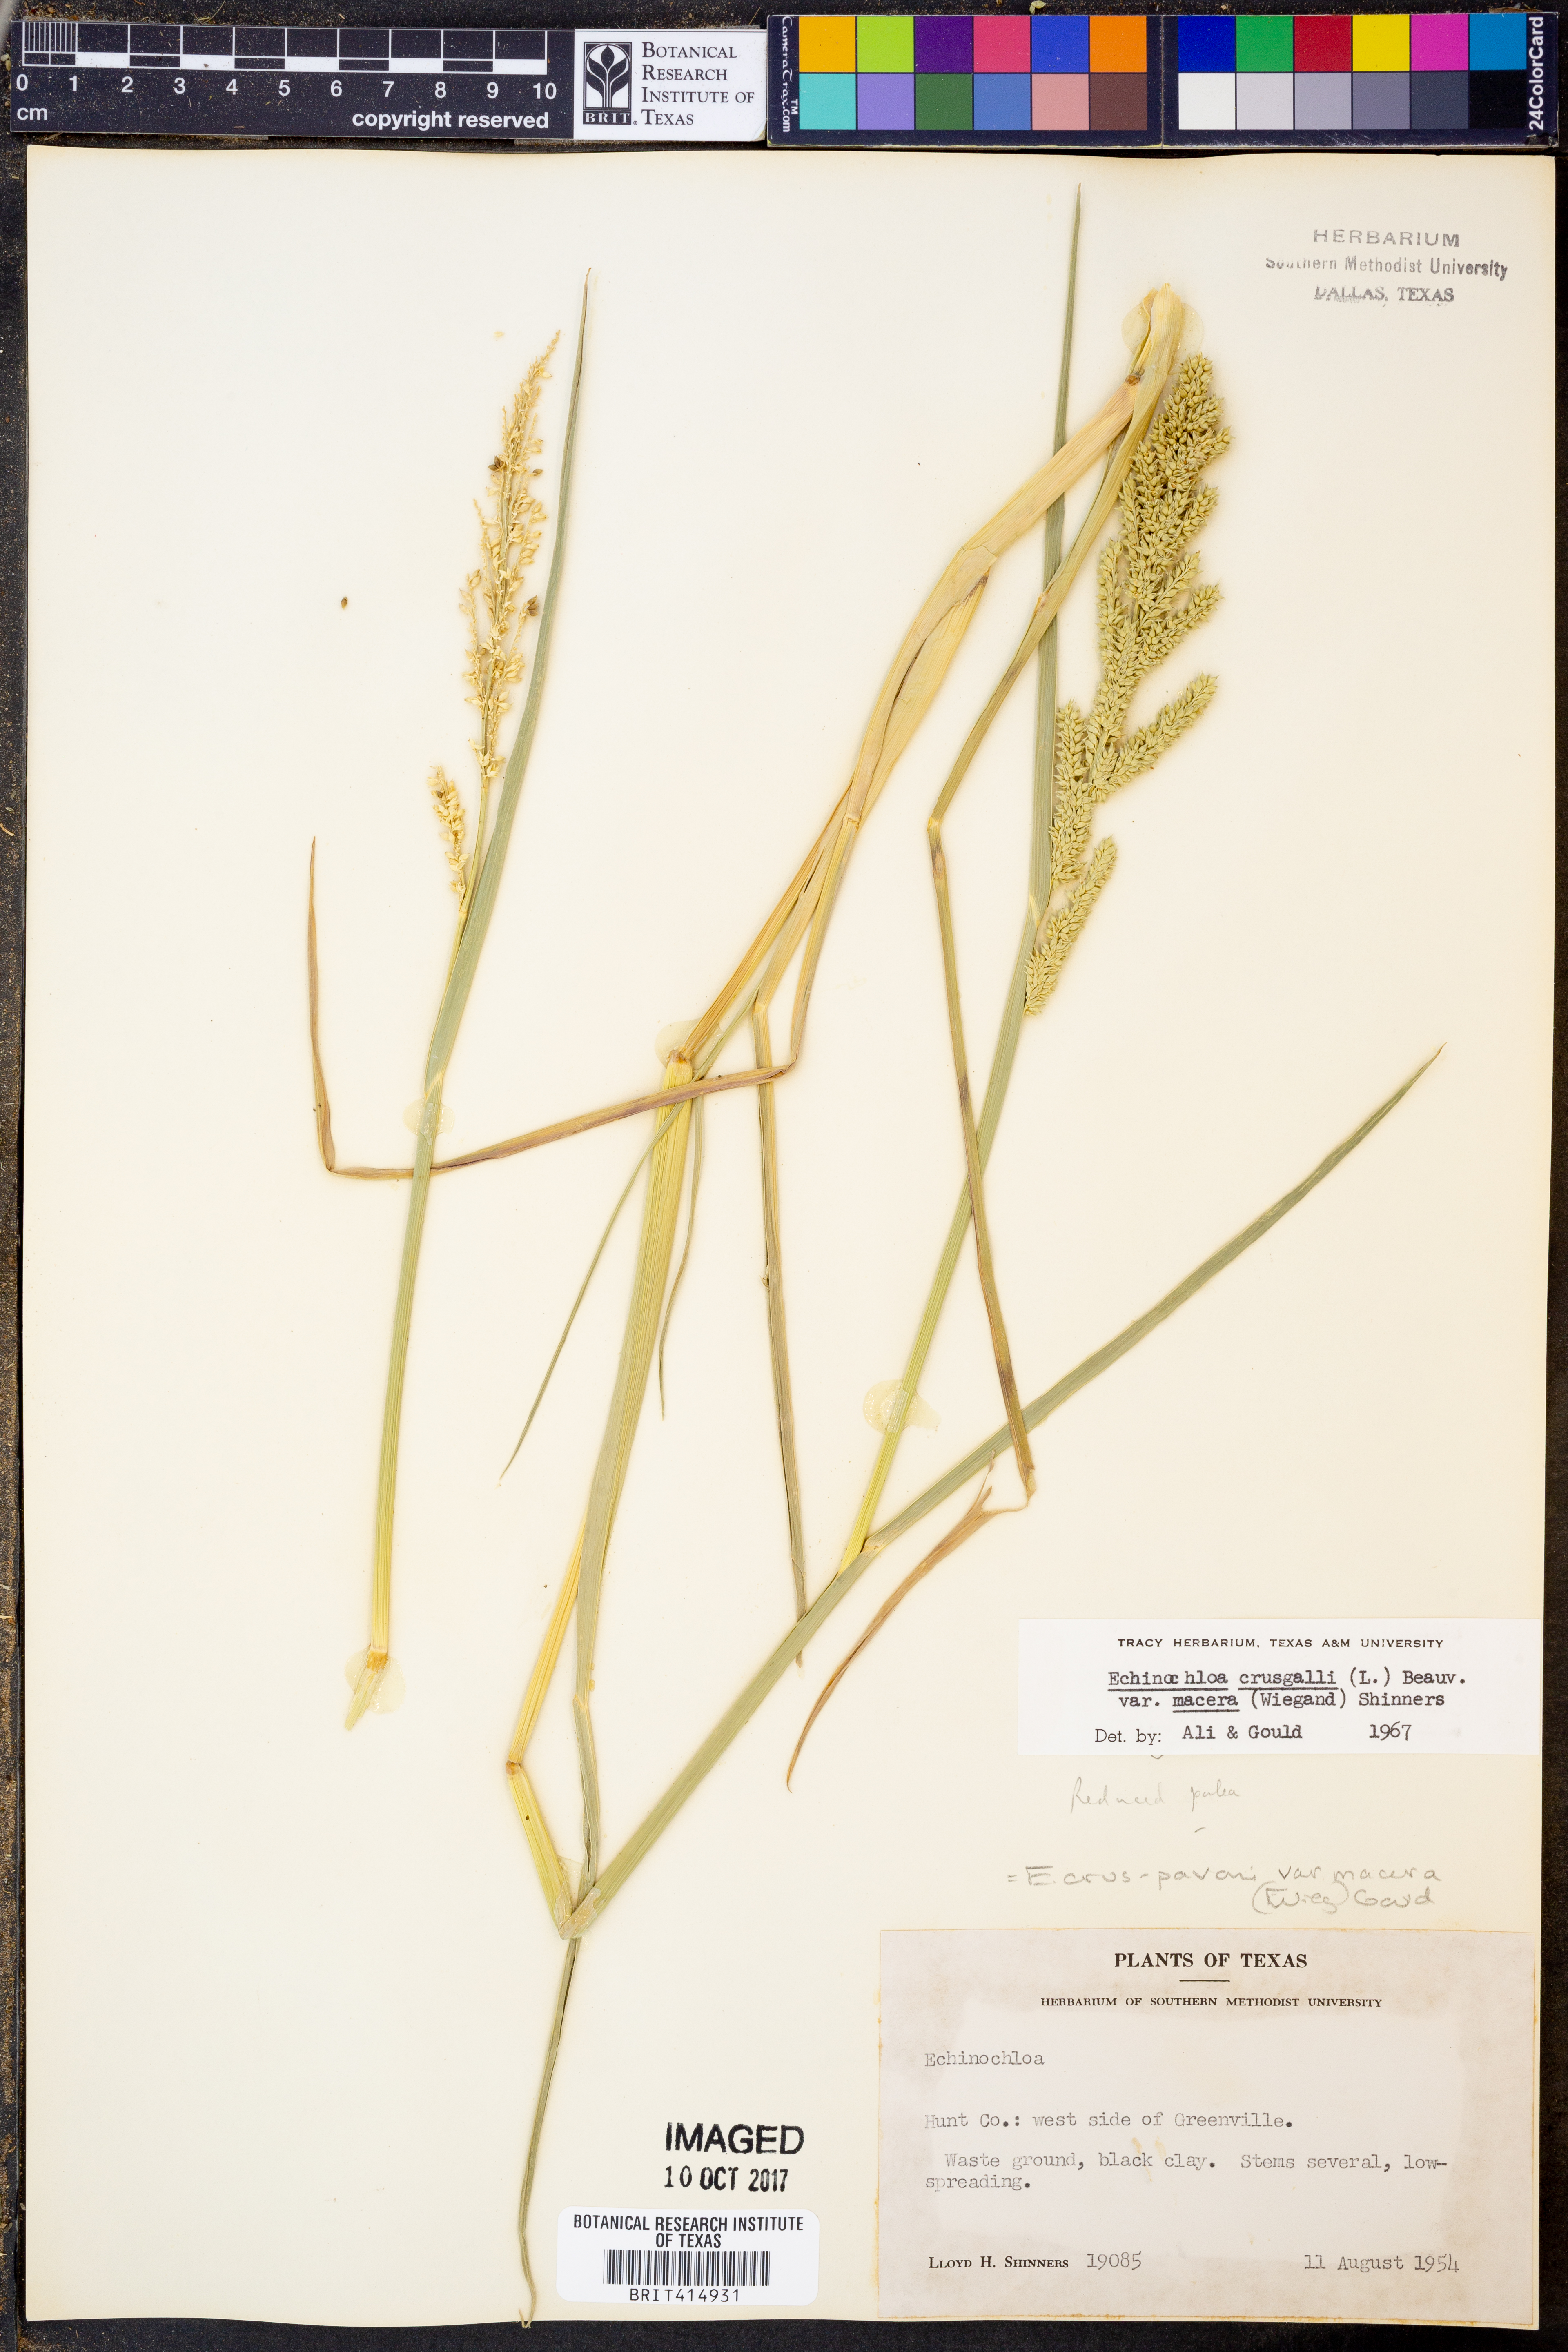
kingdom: Plantae
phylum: Tracheophyta
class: Liliopsida
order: Poales
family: Poaceae
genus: Echinochloa
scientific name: Echinochloa crus-pavonis
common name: Gulf cockspur grass
